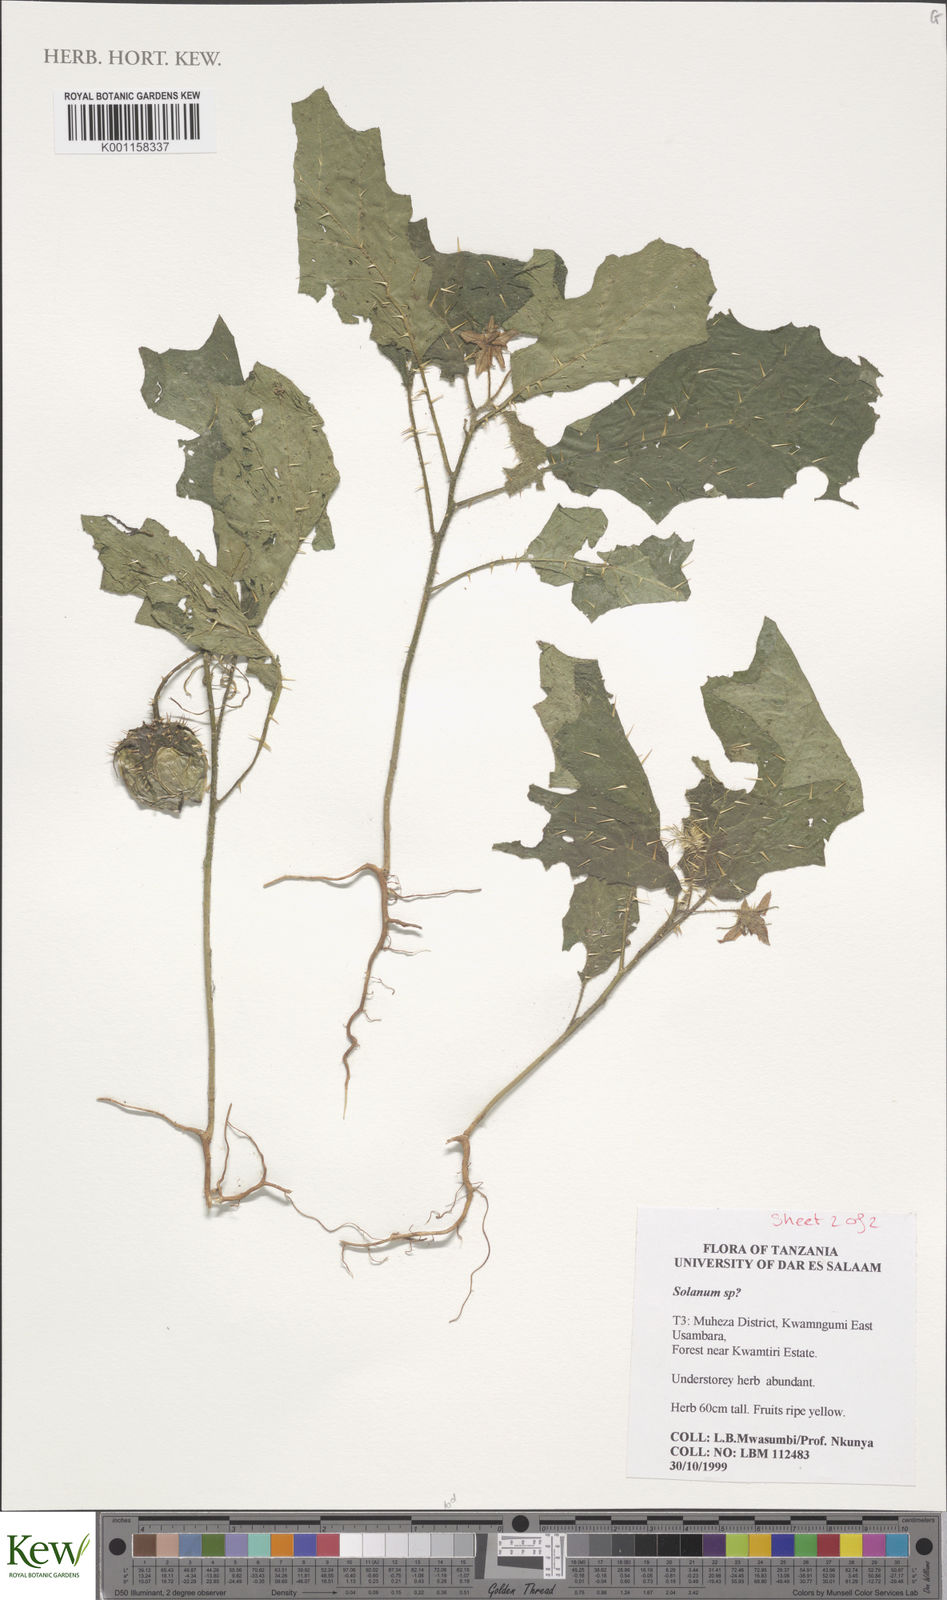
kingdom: Plantae
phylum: Tracheophyta
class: Magnoliopsida
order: Solanales
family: Solanaceae
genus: Solanum
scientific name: Solanum dasyphyllum
